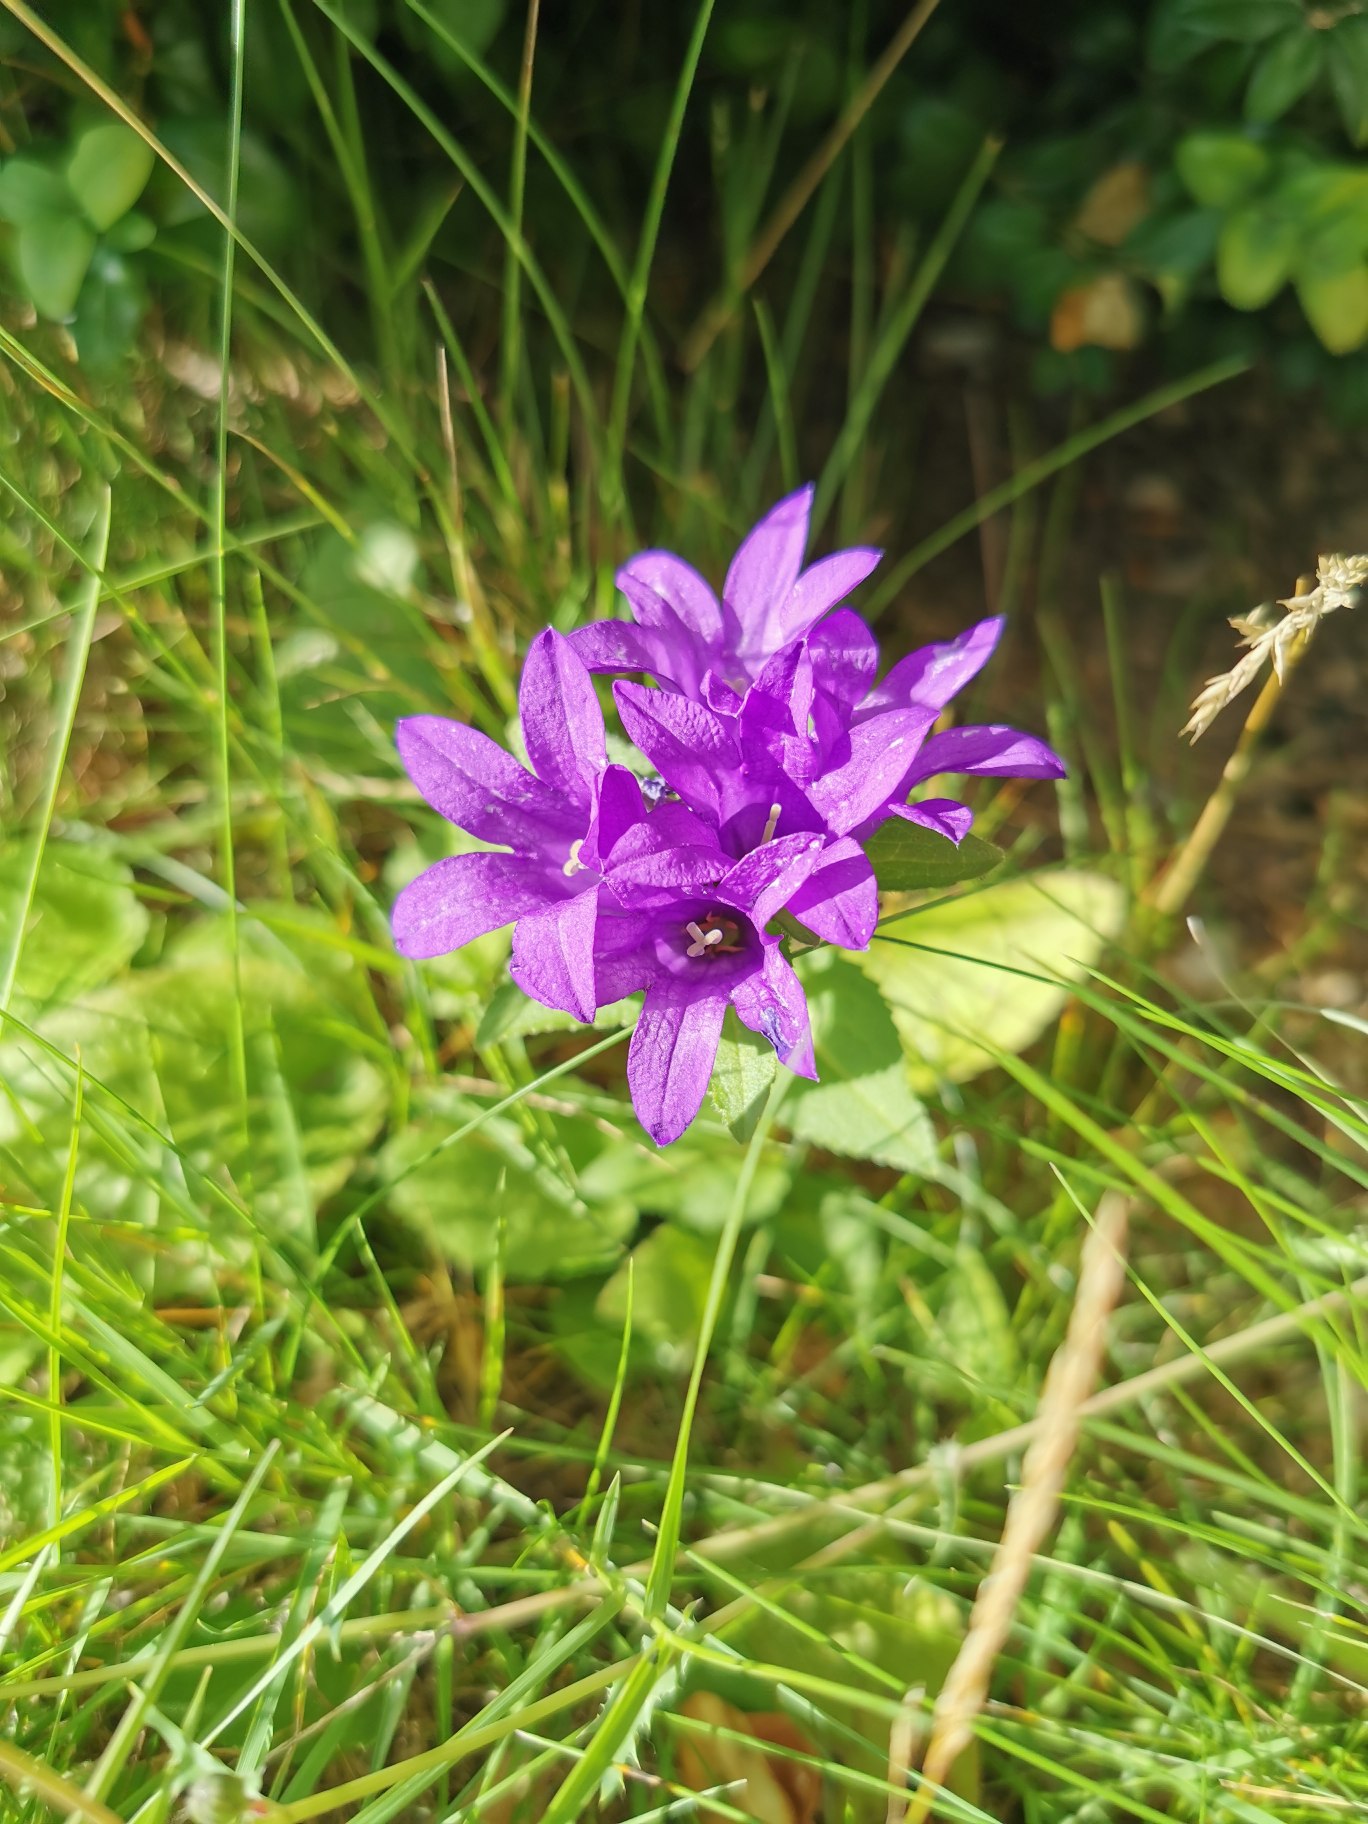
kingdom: Plantae
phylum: Tracheophyta
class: Magnoliopsida
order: Asterales
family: Campanulaceae
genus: Campanula
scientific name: Campanula glomerata
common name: Nøgleblomstret klokke
